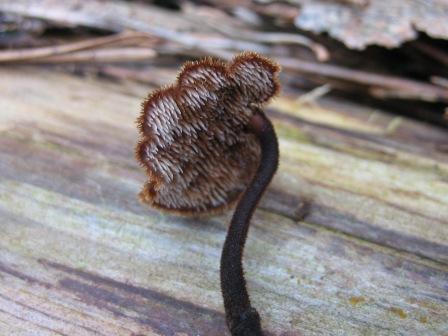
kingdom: Fungi
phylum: Basidiomycota
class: Agaricomycetes
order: Russulales
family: Auriscalpiaceae
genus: Auriscalpium
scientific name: Auriscalpium vulgare
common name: koglepigsvamp
